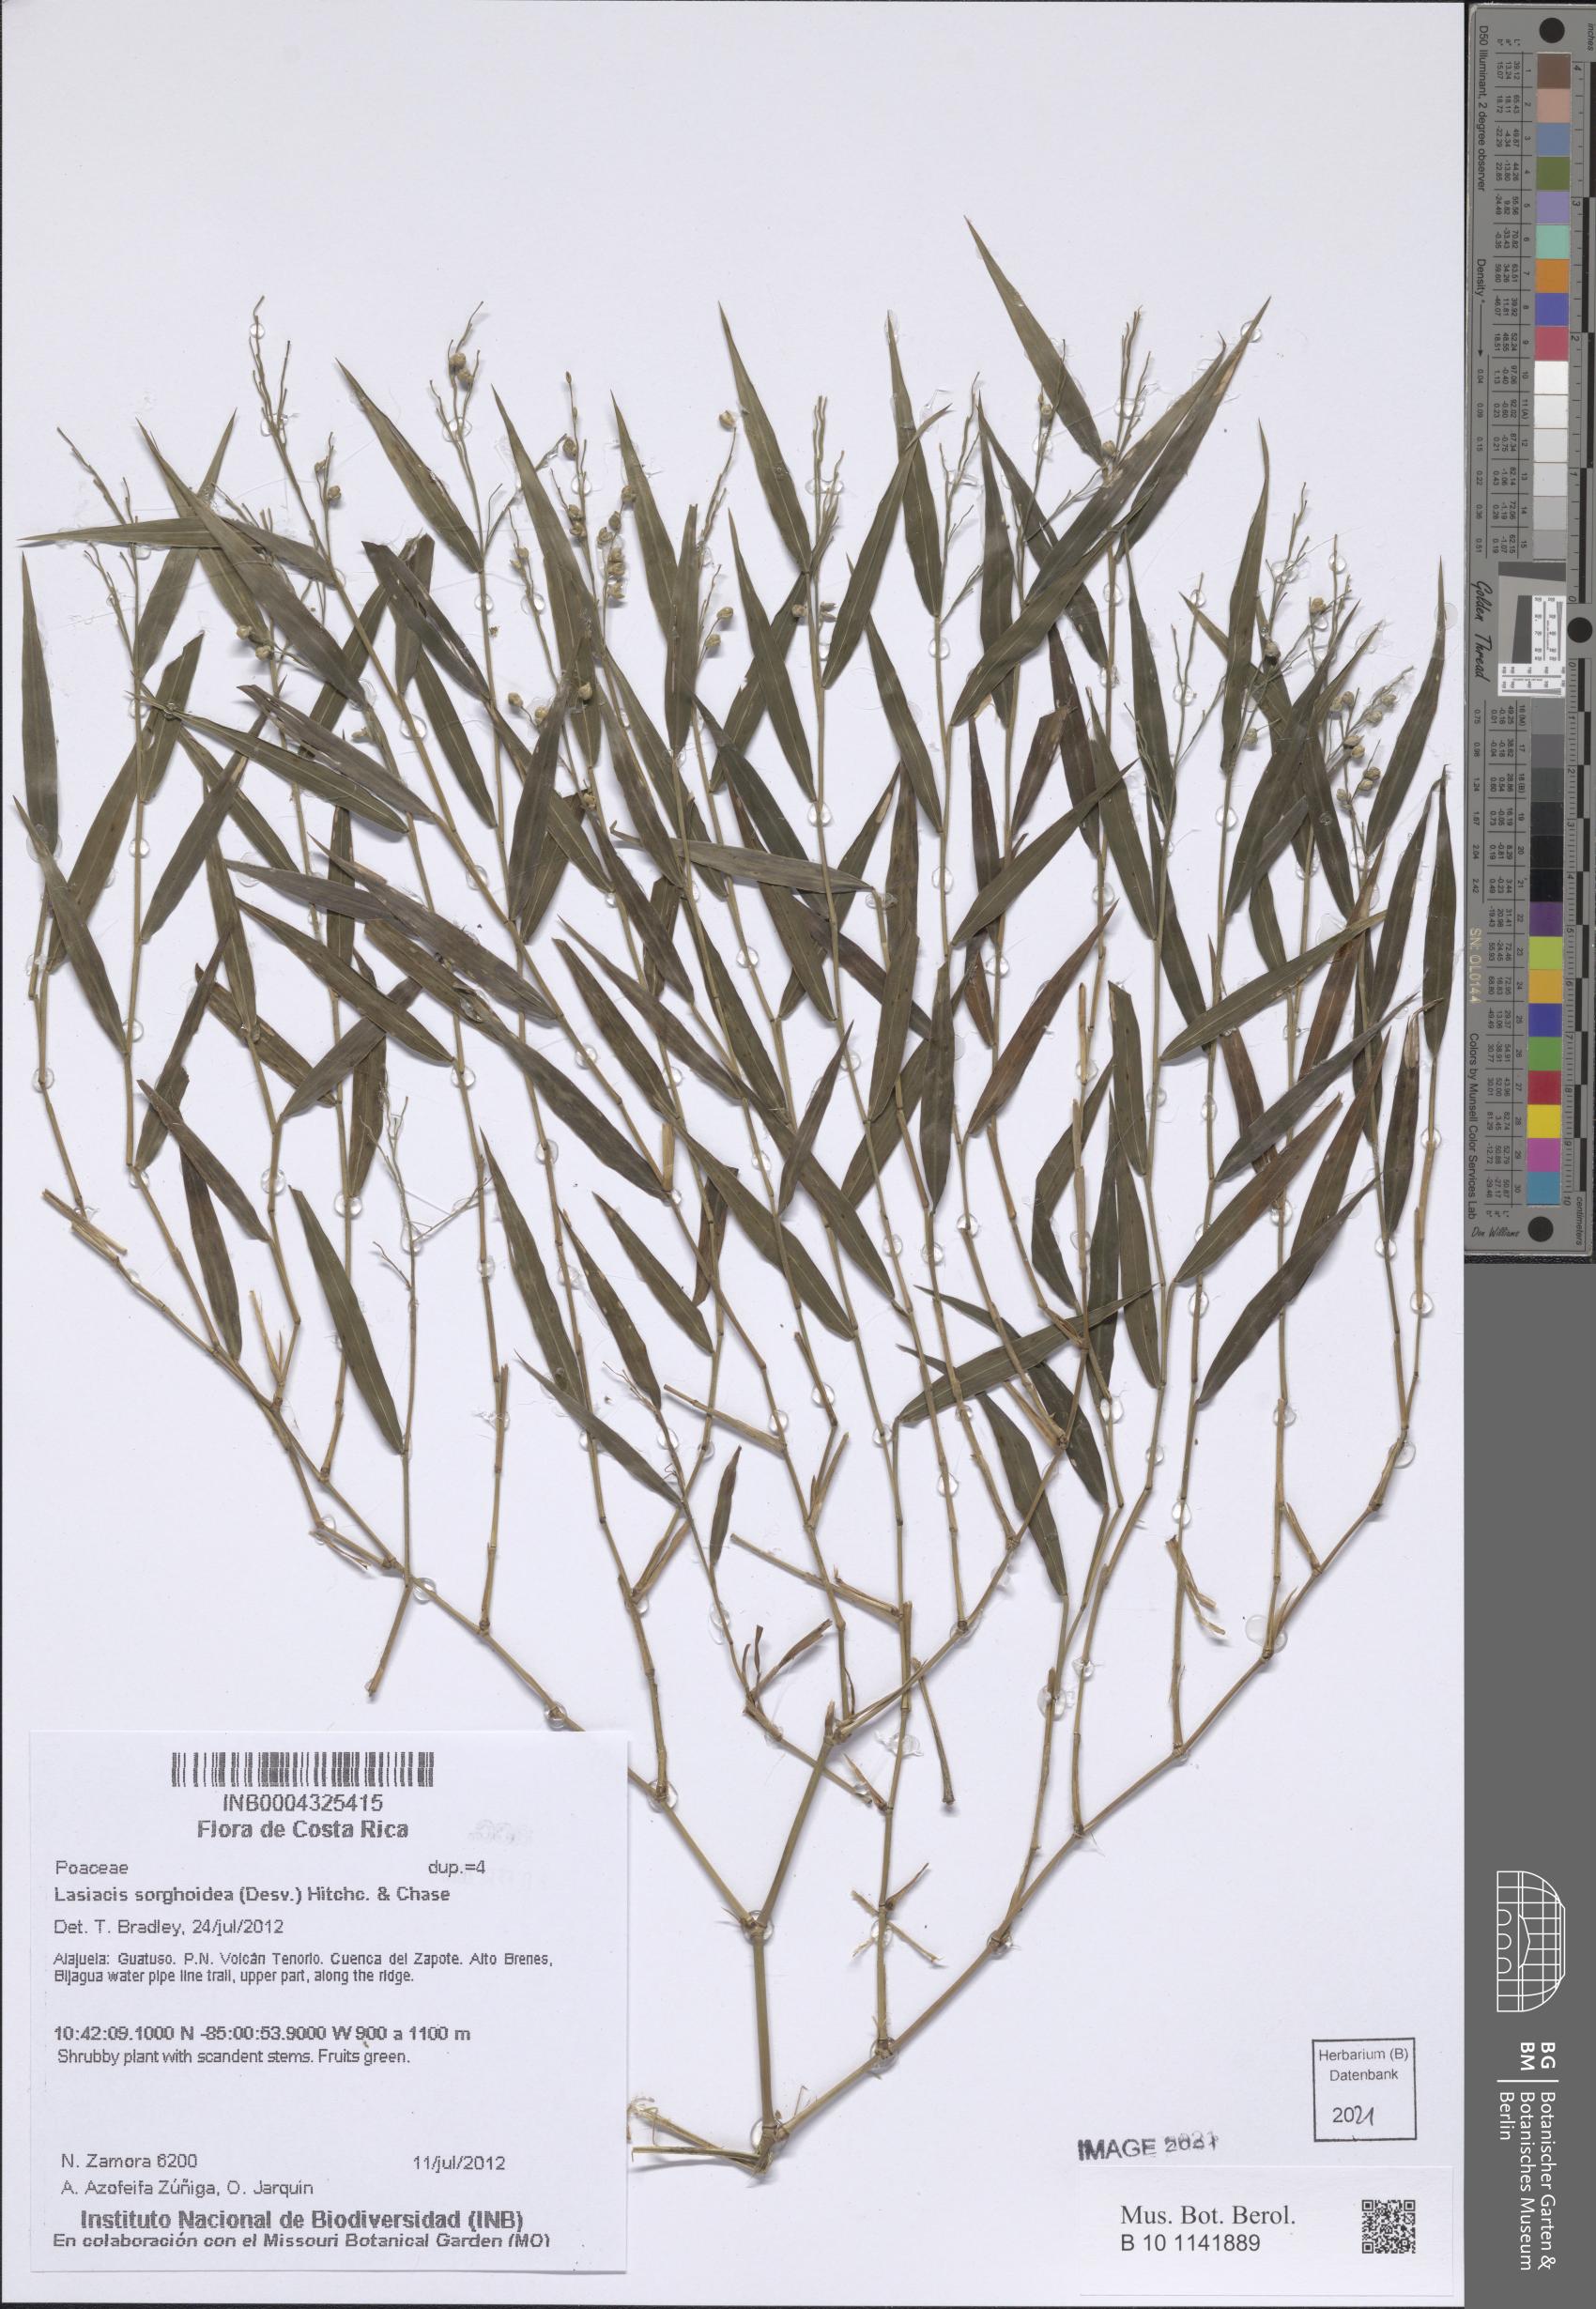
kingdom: Plantae
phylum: Tracheophyta
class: Liliopsida
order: Poales
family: Poaceae
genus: Lasiacis
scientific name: Lasiacis maculata
